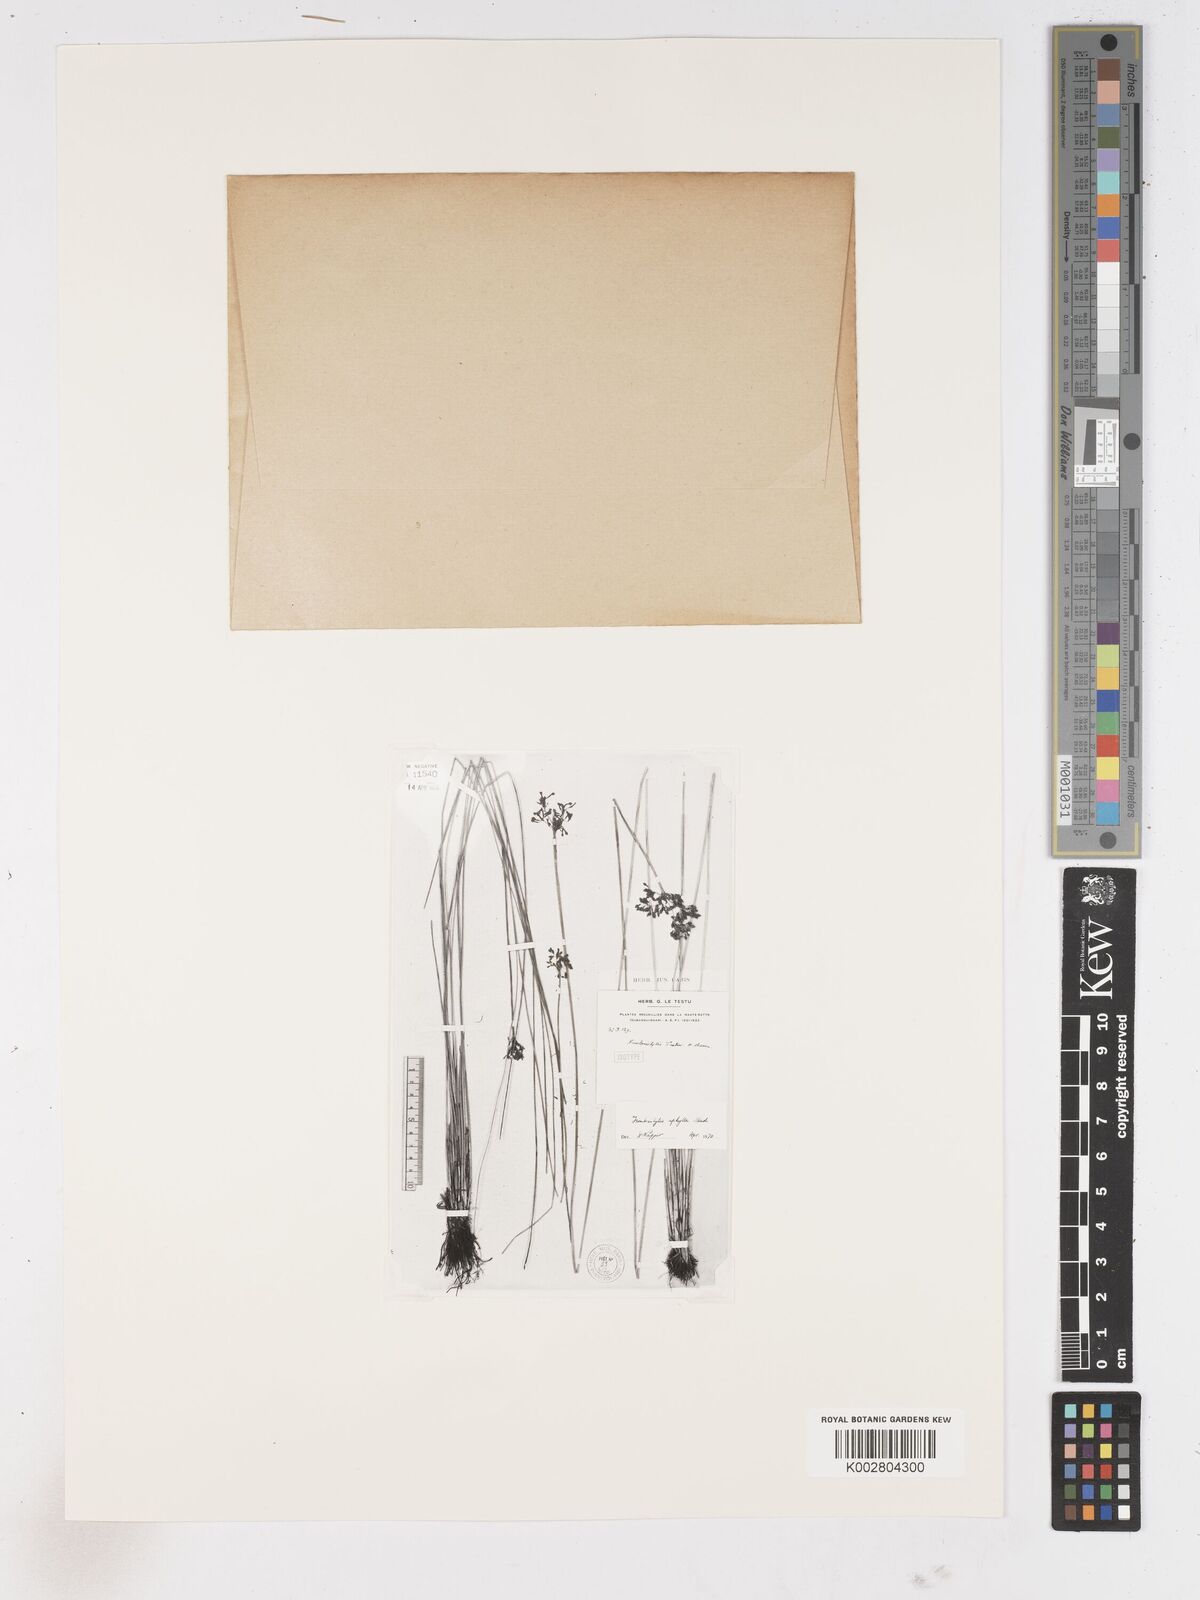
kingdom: Plantae
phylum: Tracheophyta
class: Liliopsida
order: Poales
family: Cyperaceae
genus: Fimbristylis
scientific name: Fimbristylis aphylla
